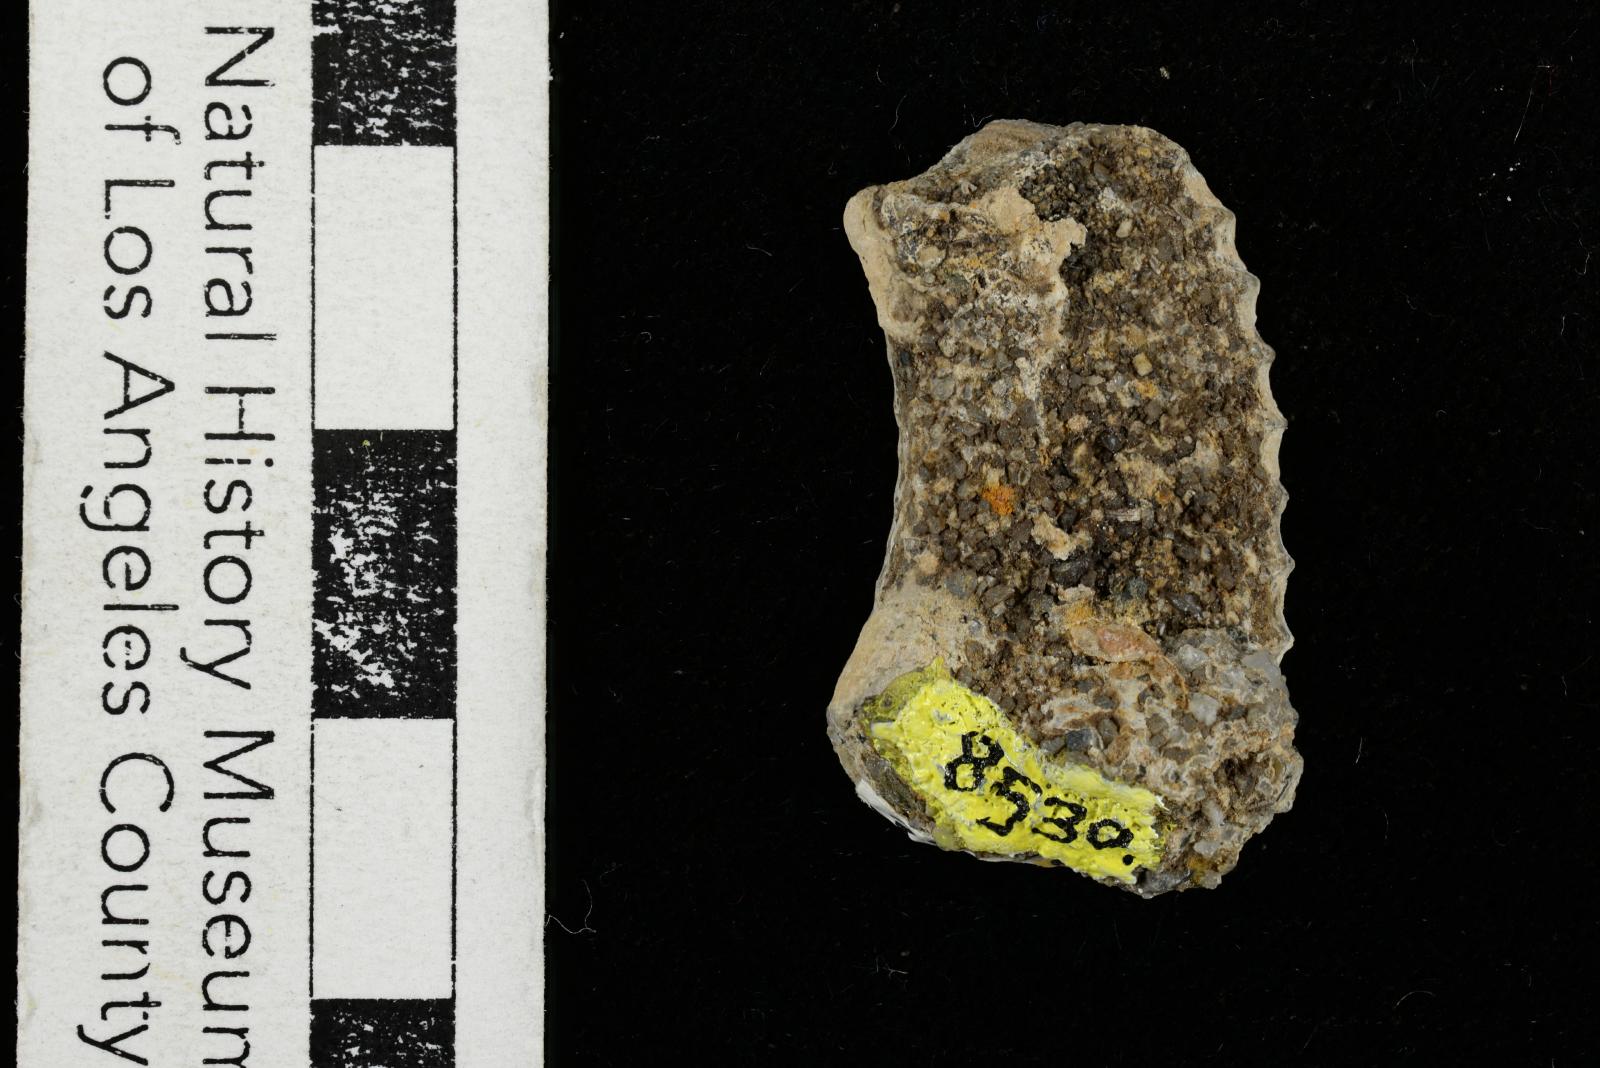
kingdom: Animalia
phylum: Mollusca
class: Cephalopoda
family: Nostoceratidae
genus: Nostoceras
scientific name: Nostoceras
